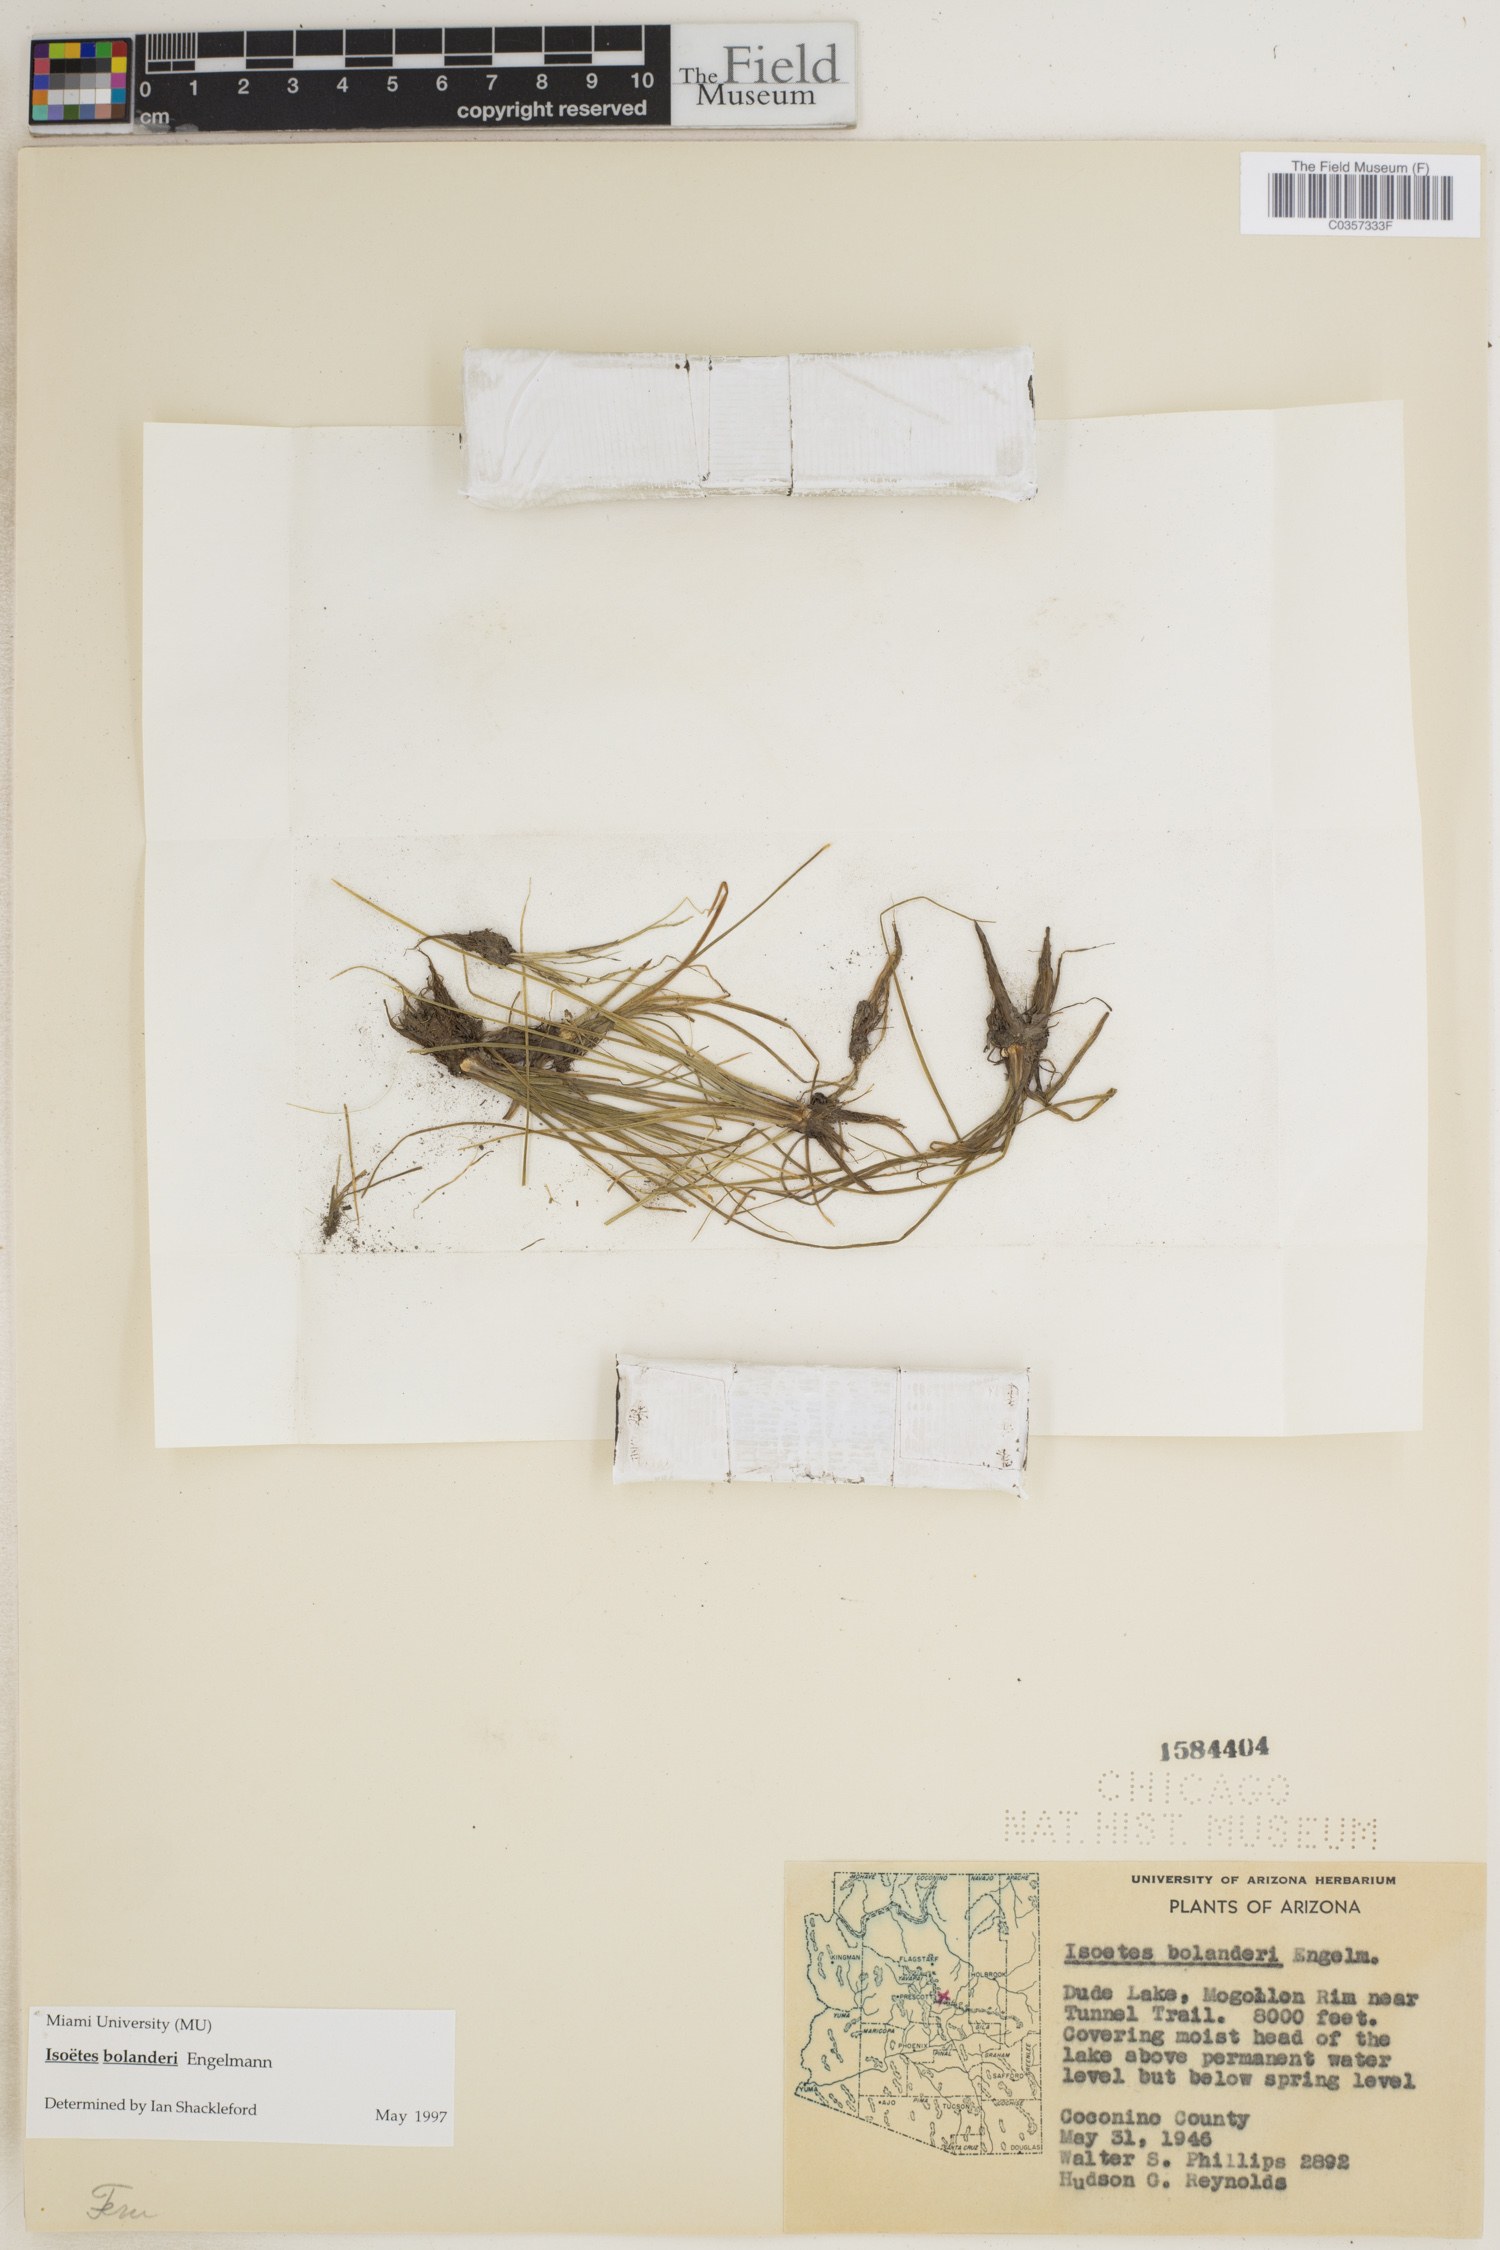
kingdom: Plantae
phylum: Tracheophyta
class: Lycopodiopsida
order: Isoetales
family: Isoetaceae
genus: Isoetes
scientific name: Isoetes bolanderi
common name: Bolander's quillwort
